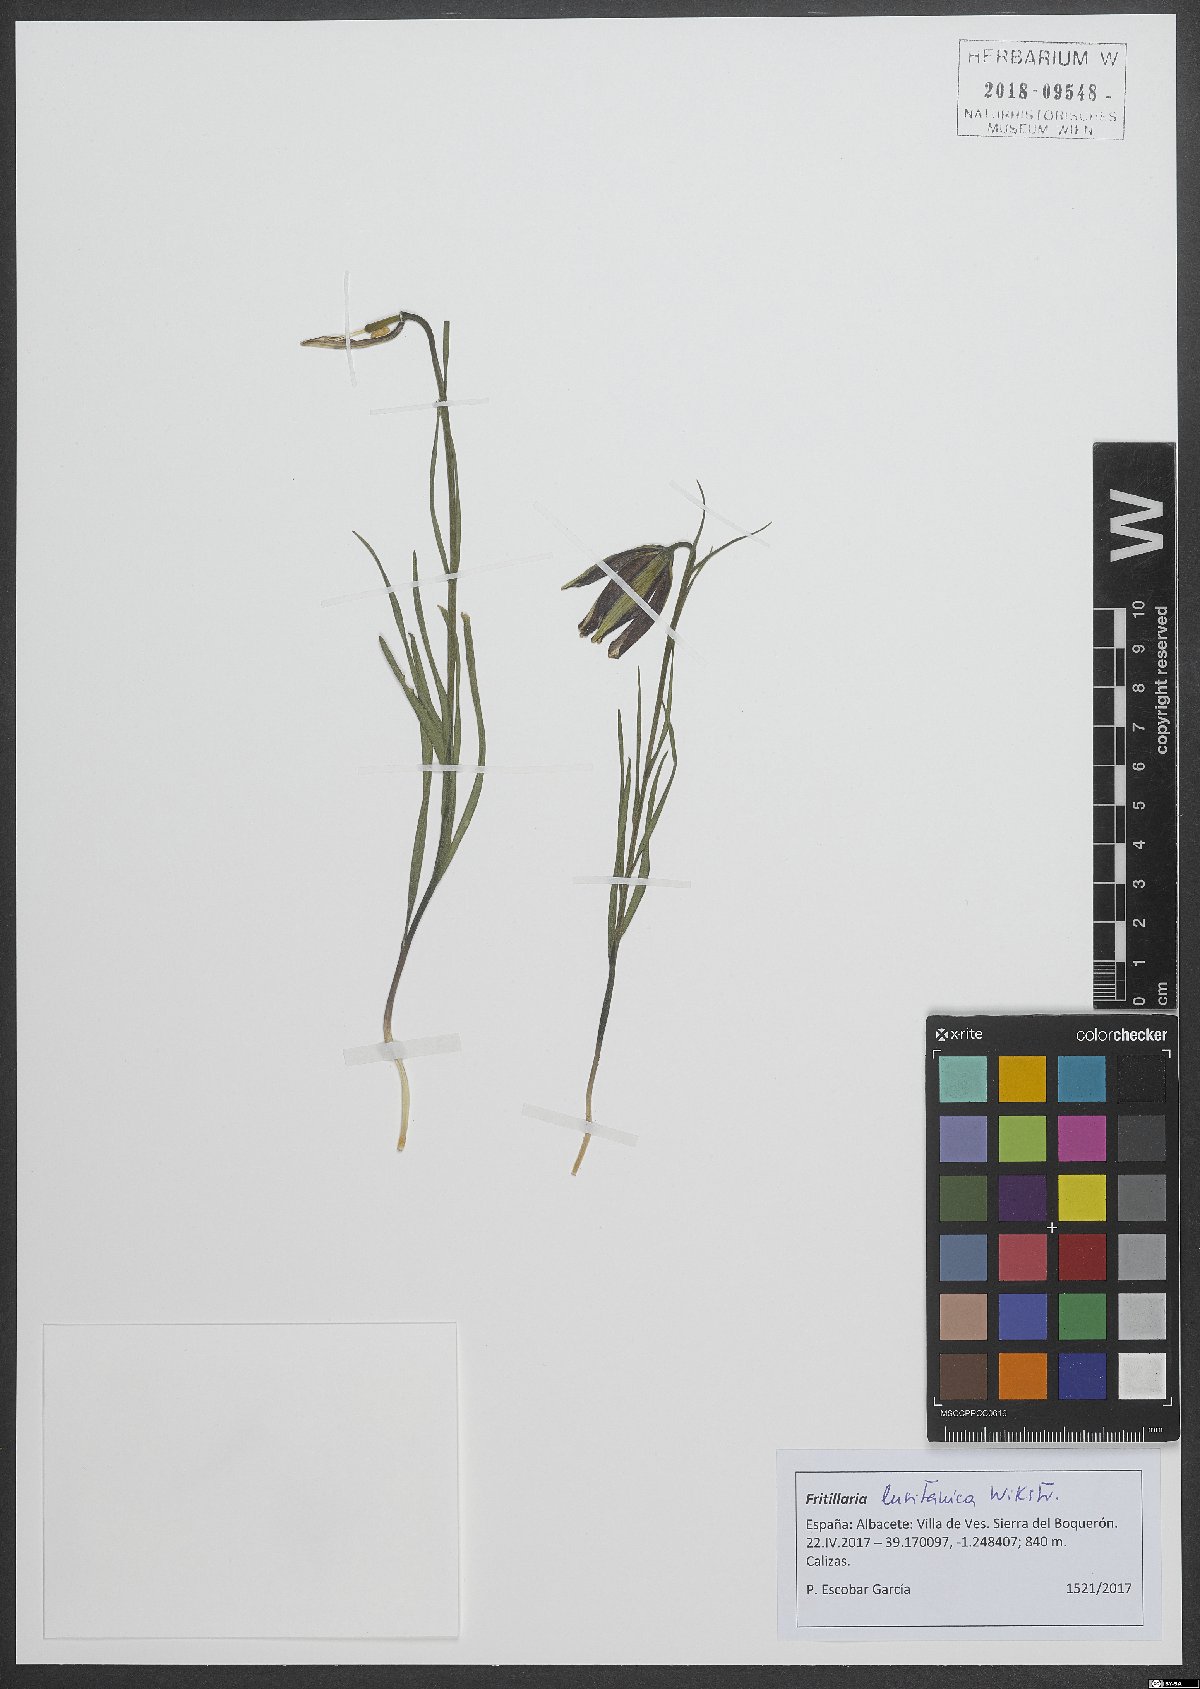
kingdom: Plantae
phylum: Tracheophyta
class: Liliopsida
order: Liliales
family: Liliaceae
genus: Fritillaria
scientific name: Fritillaria lusitanica
